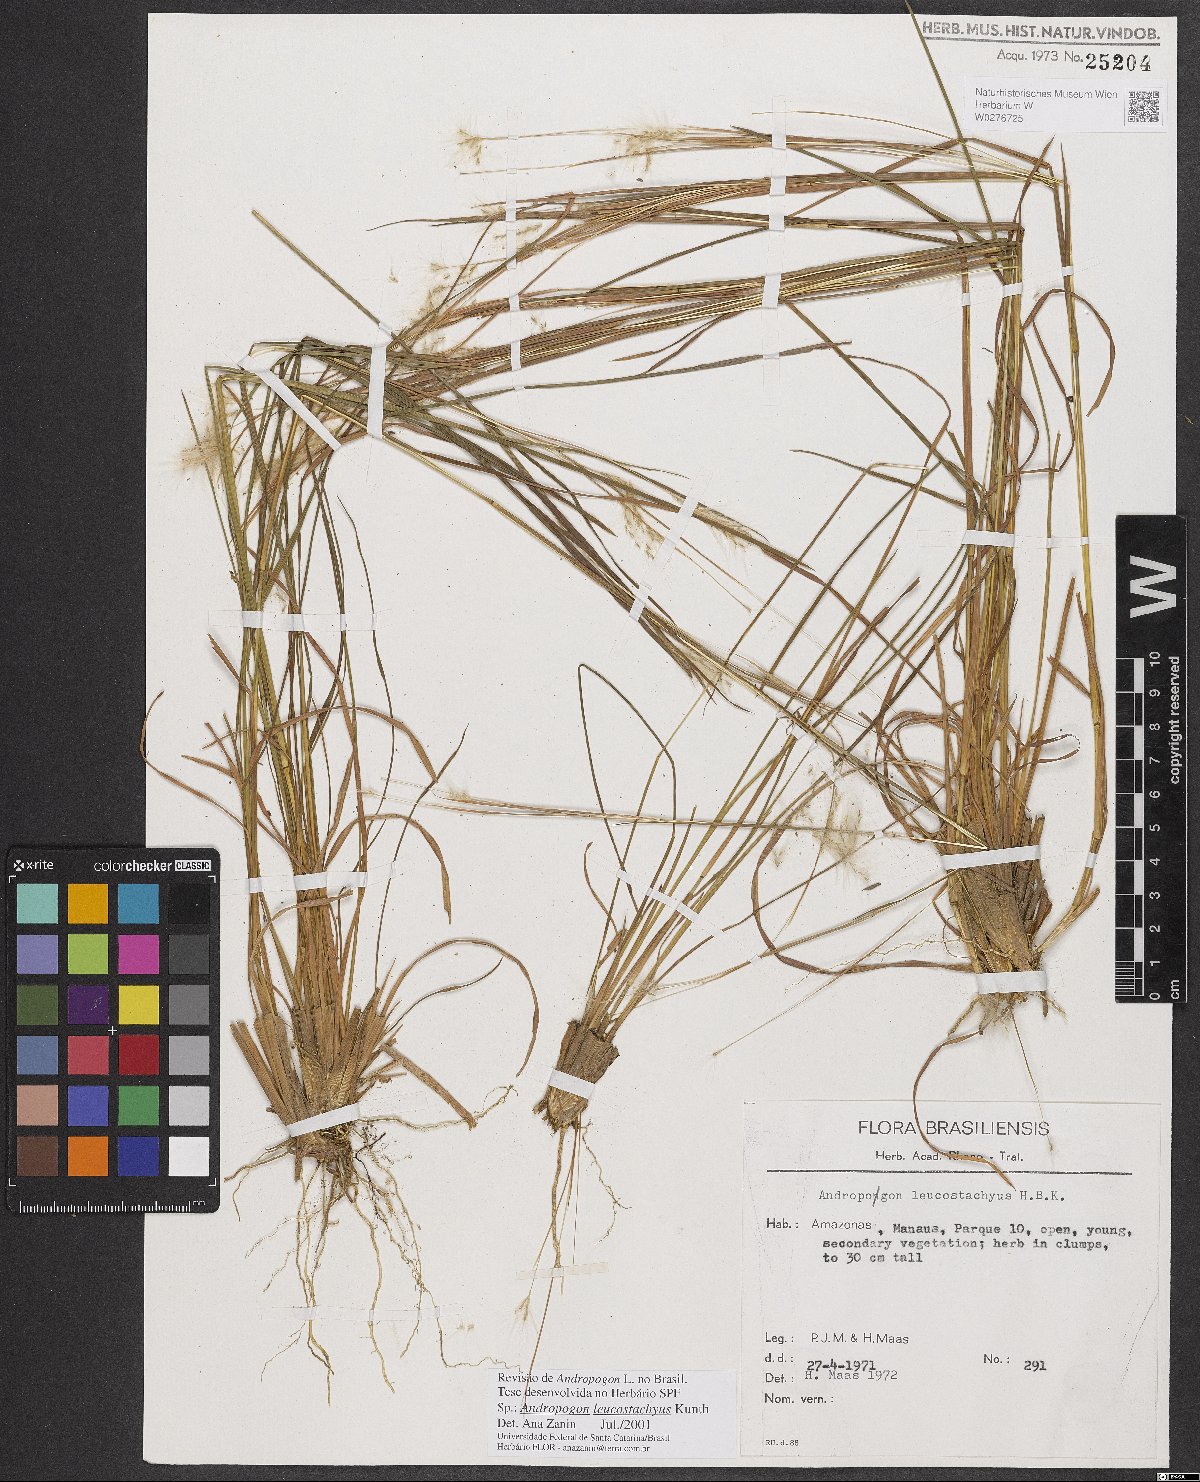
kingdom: Plantae
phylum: Tracheophyta
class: Liliopsida
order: Poales
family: Poaceae
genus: Andropogon
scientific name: Andropogon leucostachyus
